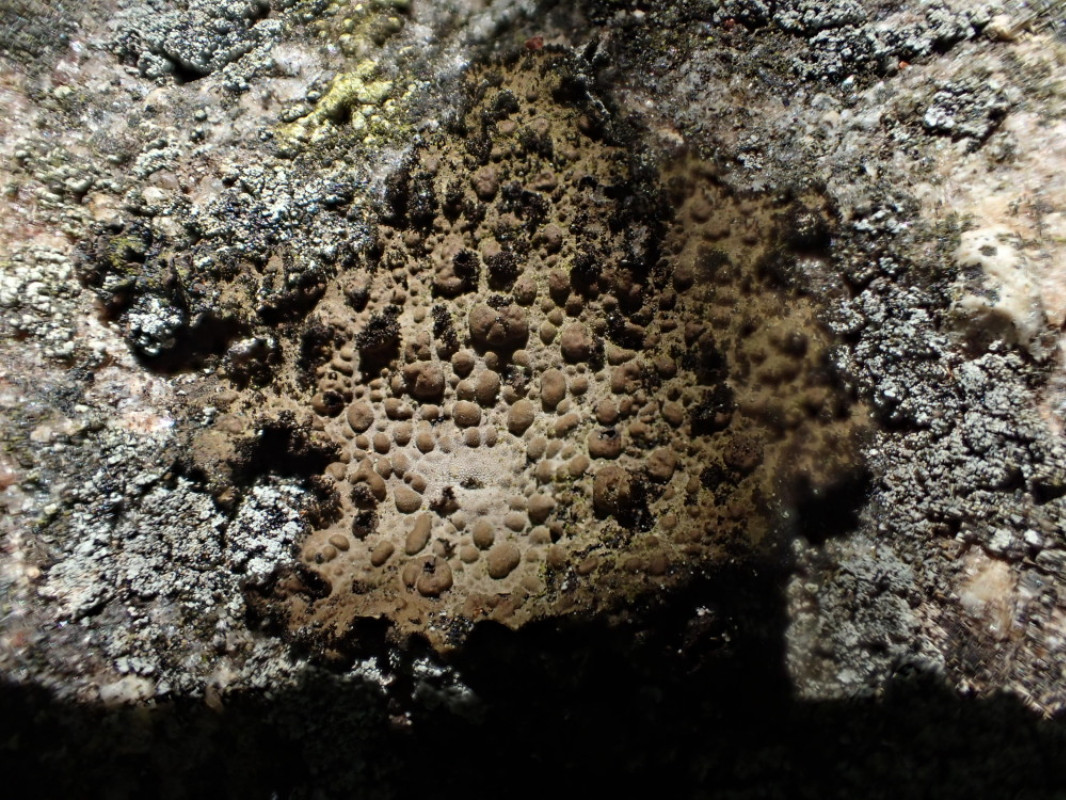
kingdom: Fungi
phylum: Ascomycota
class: Lecanoromycetes
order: Umbilicariales
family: Umbilicariaceae
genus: Lasallia
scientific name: Lasallia pustulata
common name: buklet navlelav
